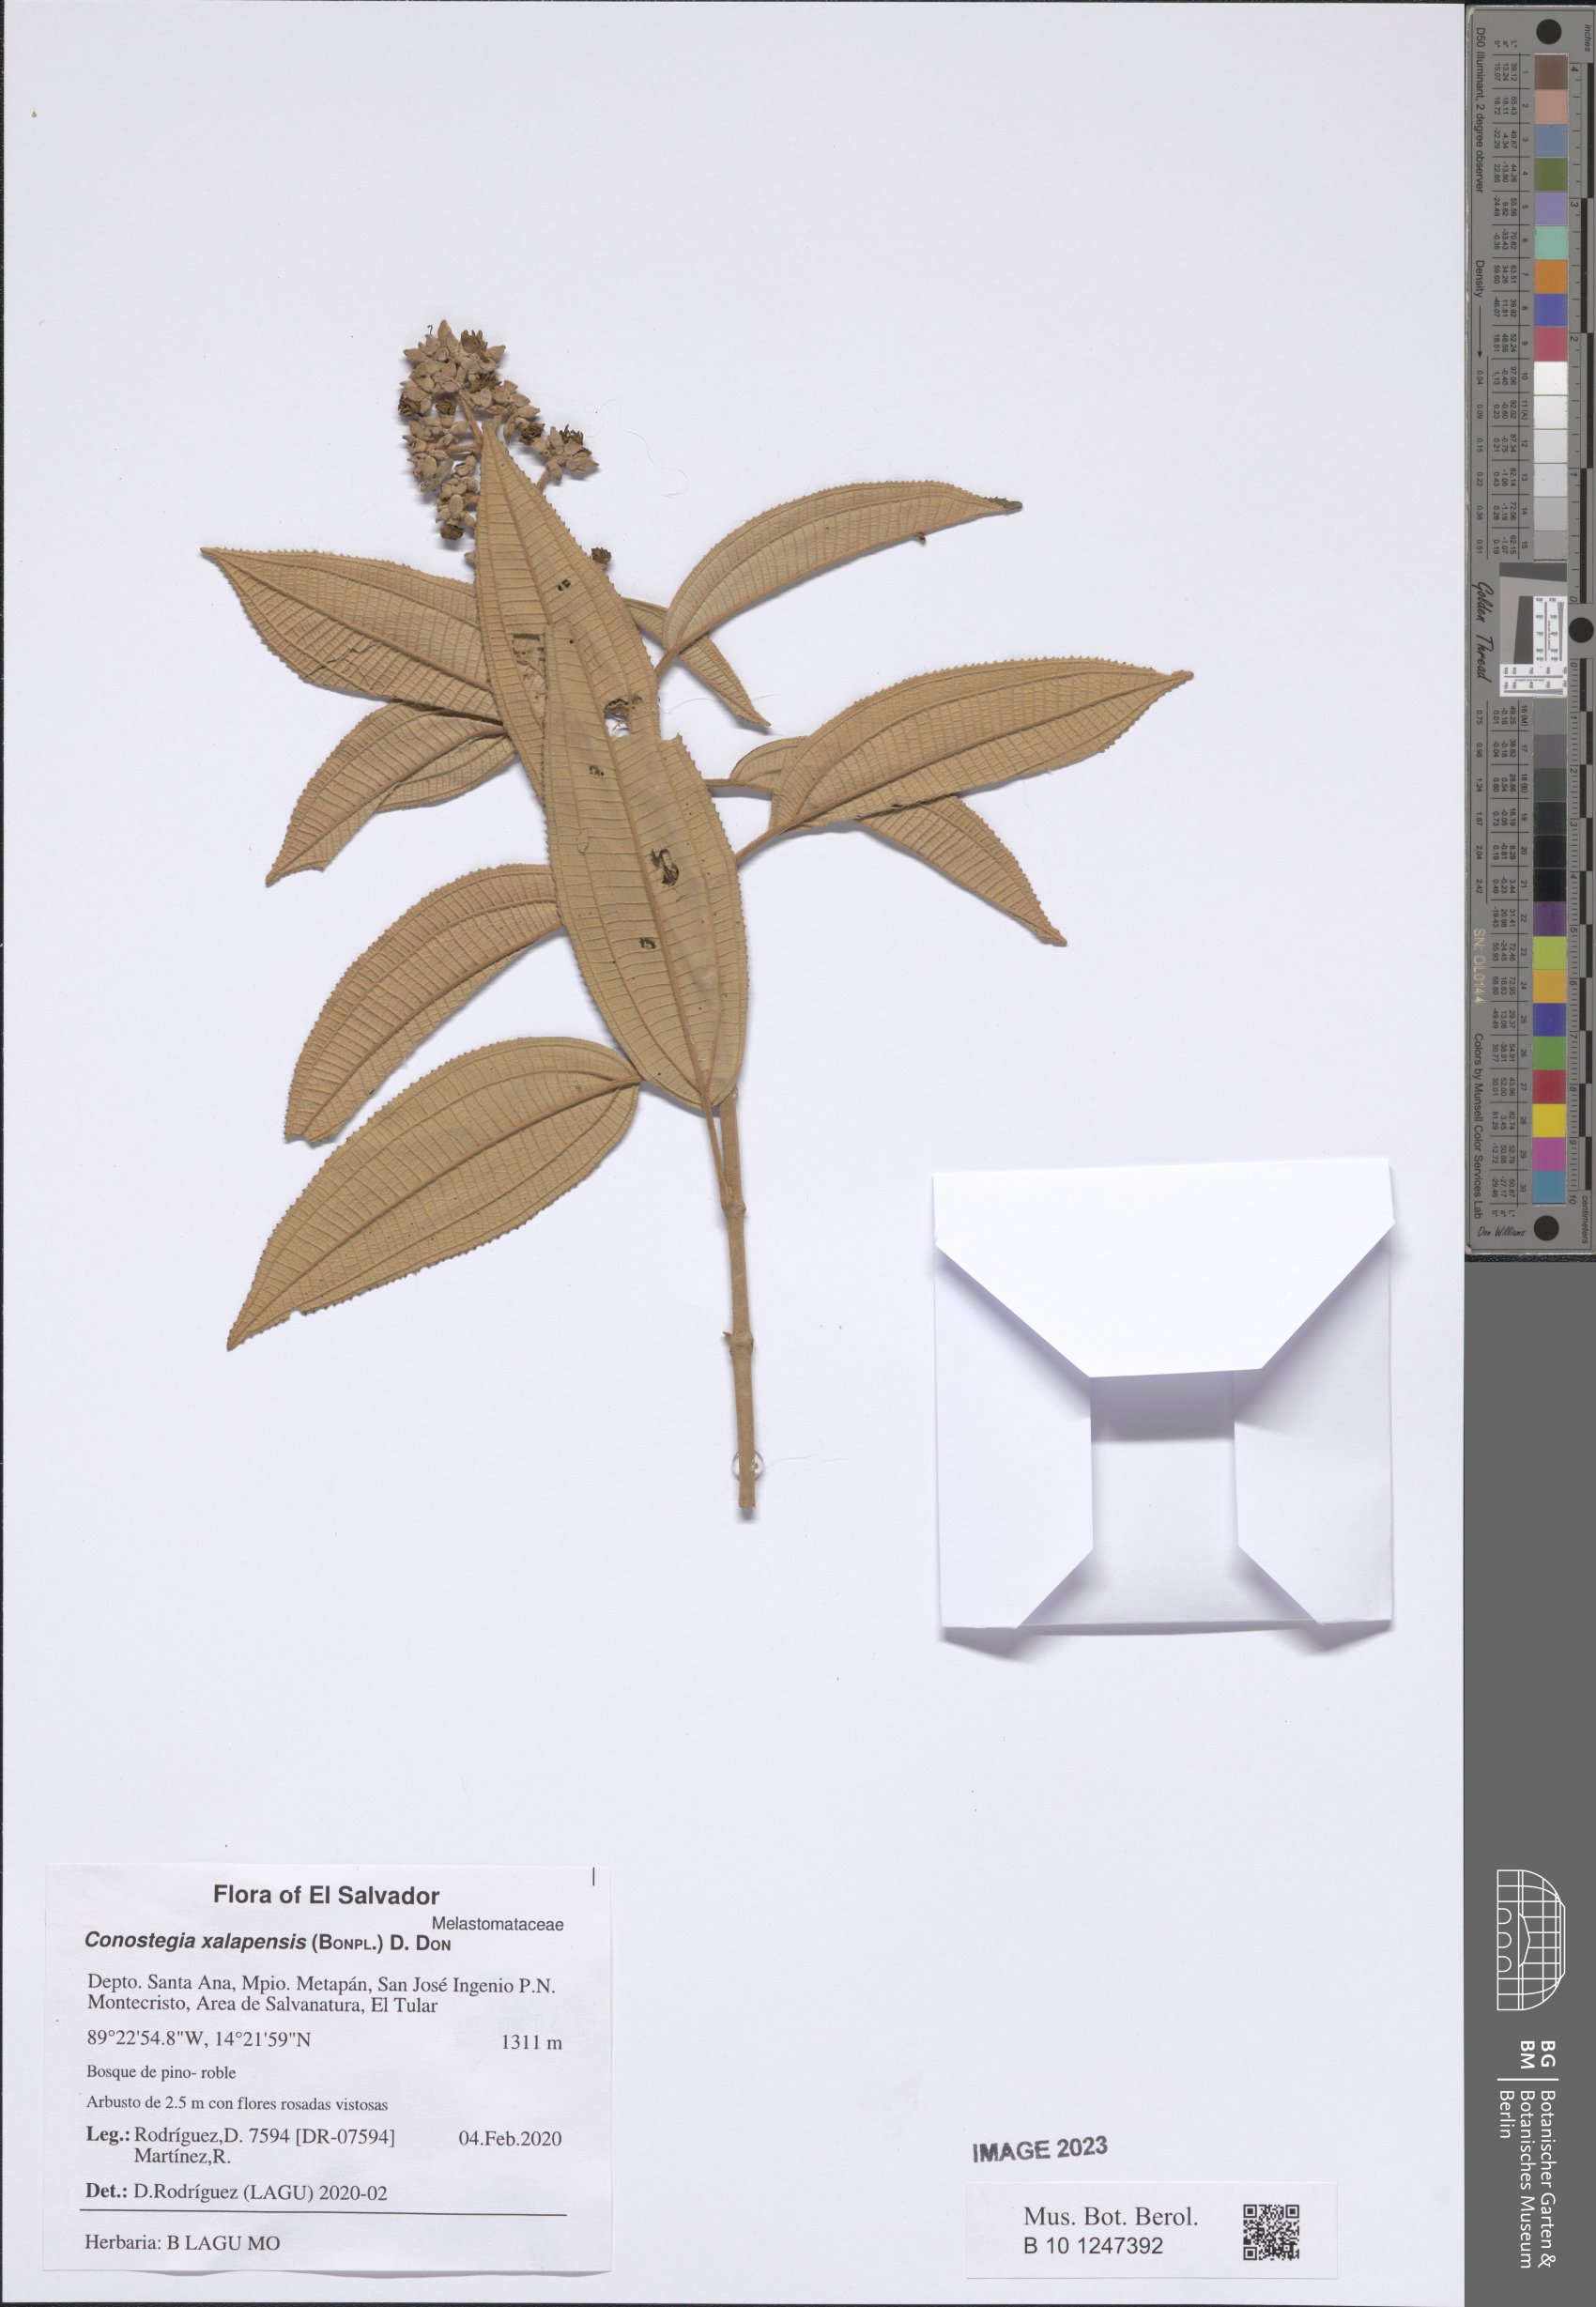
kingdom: Plantae
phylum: Tracheophyta
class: Magnoliopsida
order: Myrtales
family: Melastomataceae
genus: Miconia
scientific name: Miconia xalapensis
